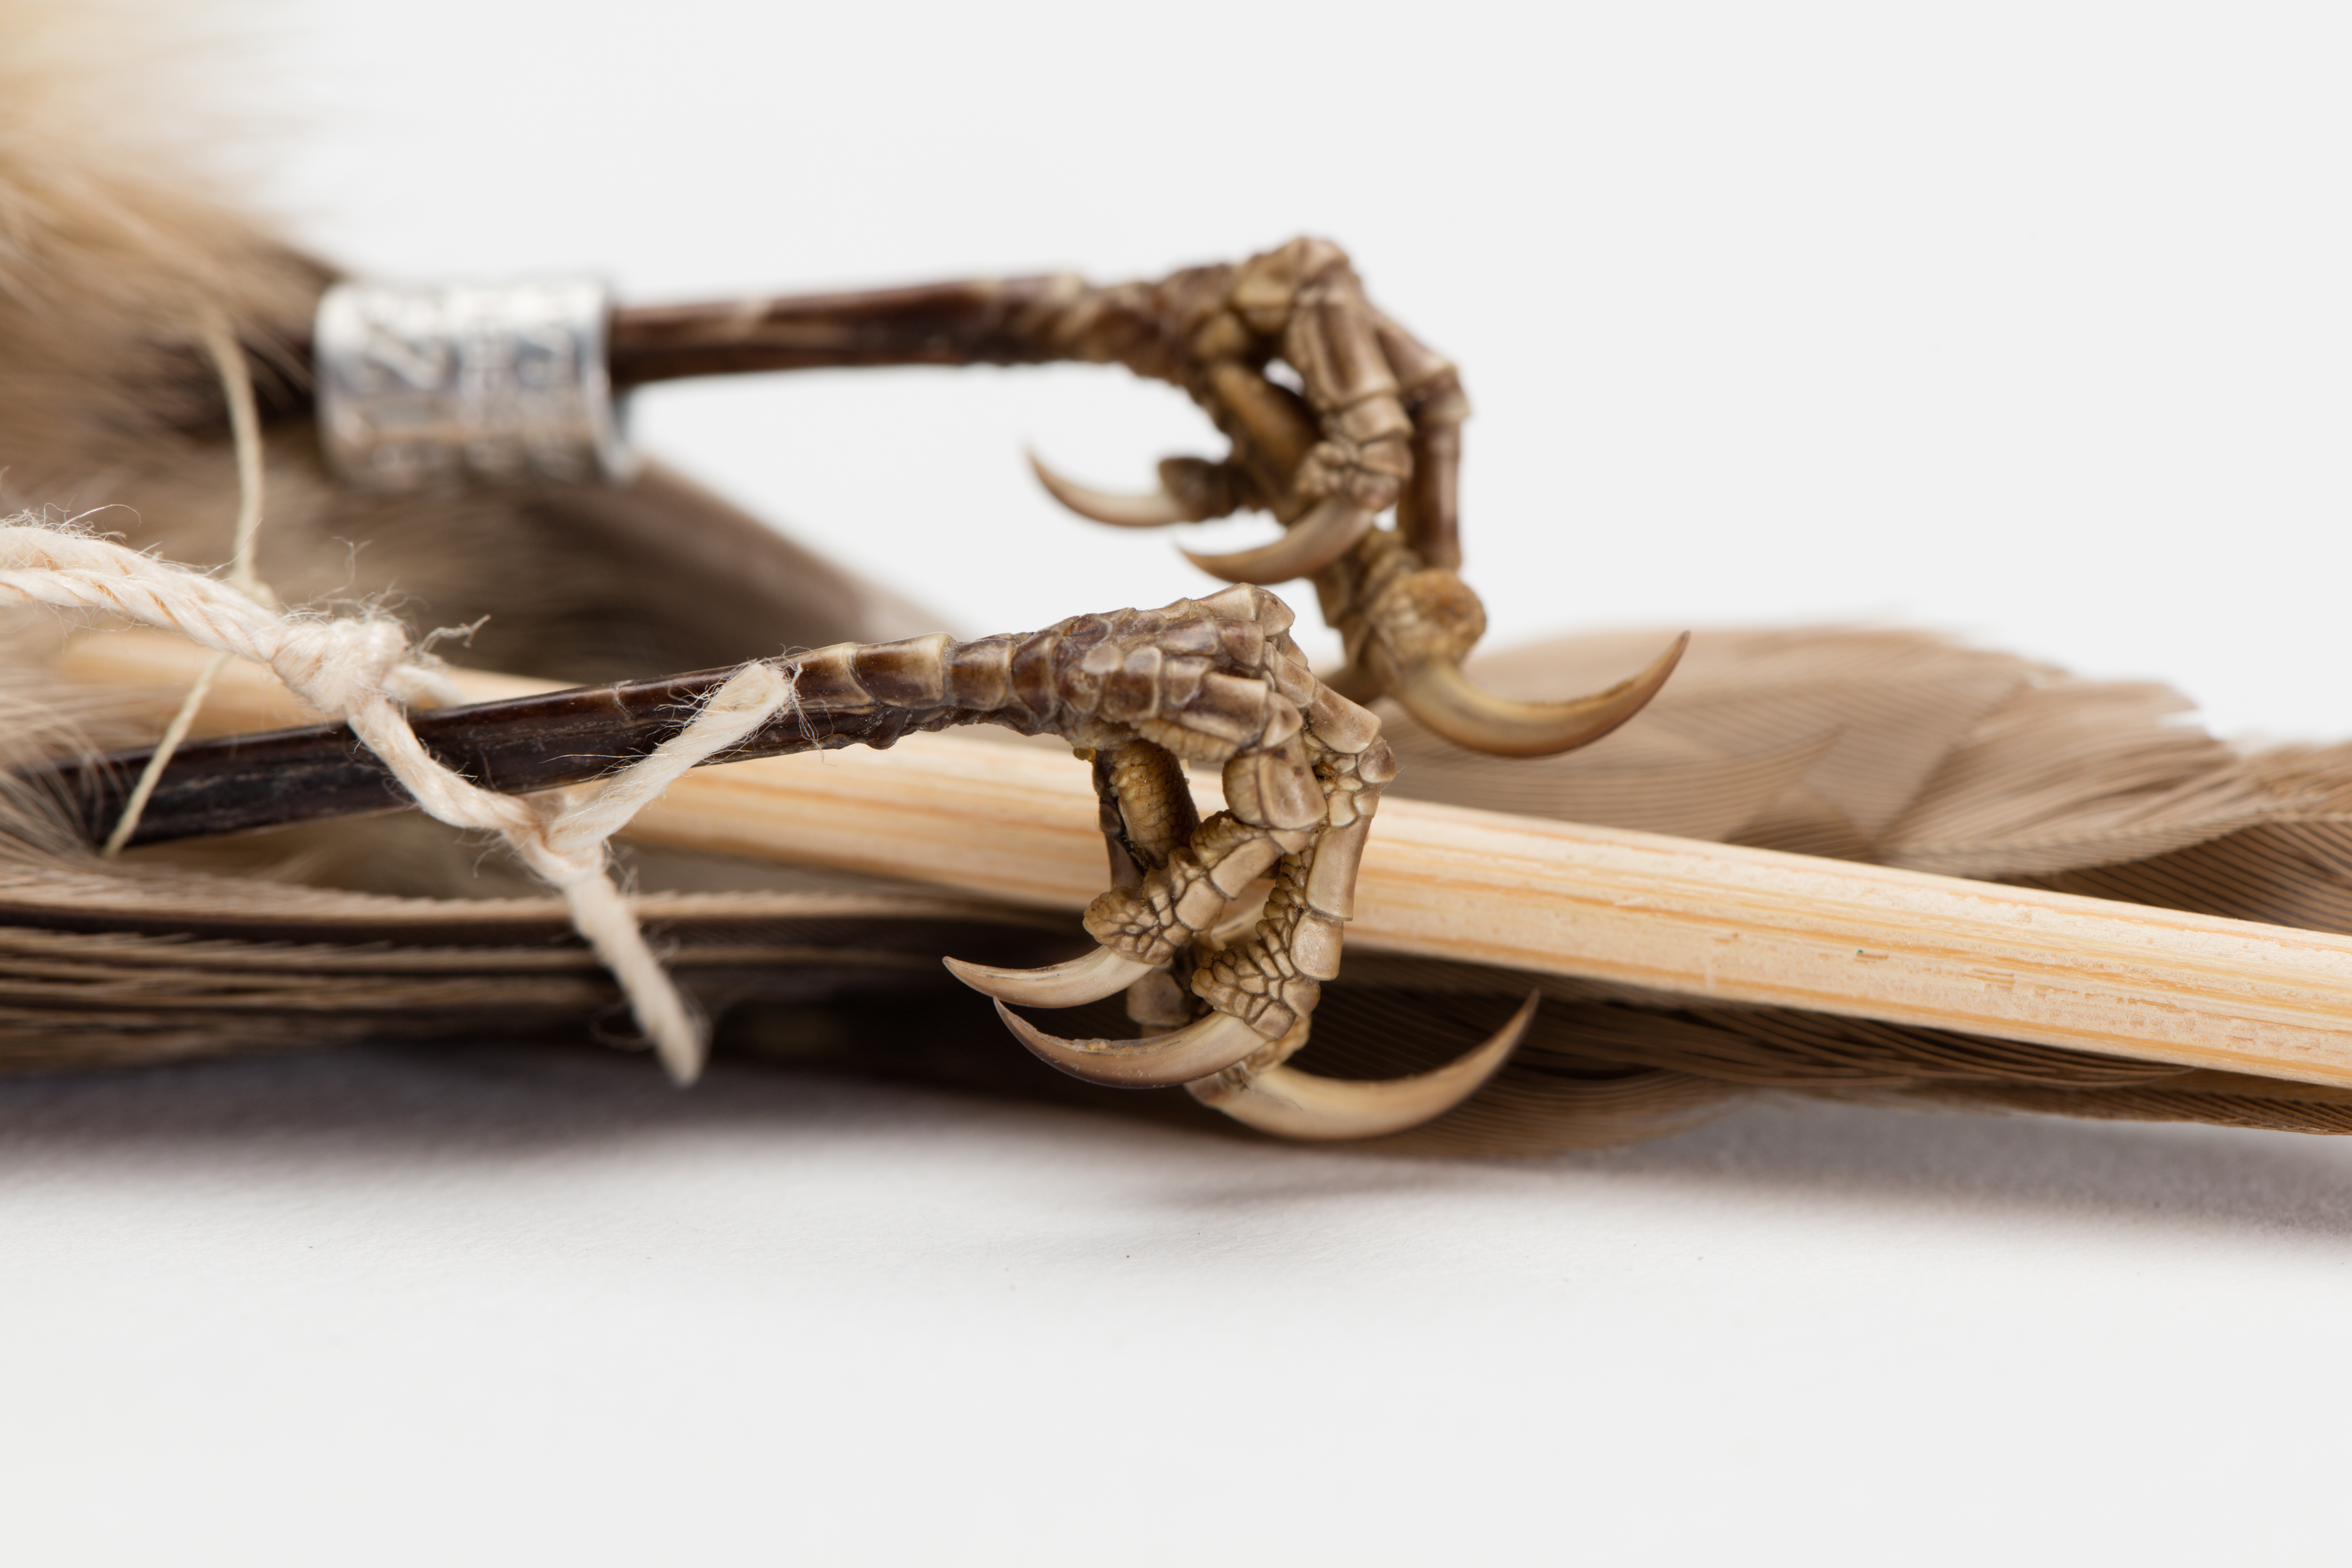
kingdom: Animalia
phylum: Chordata
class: Aves
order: Passeriformes
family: Acanthizidae
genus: Mohoua
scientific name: Mohoua albicilla
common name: Whitehead
